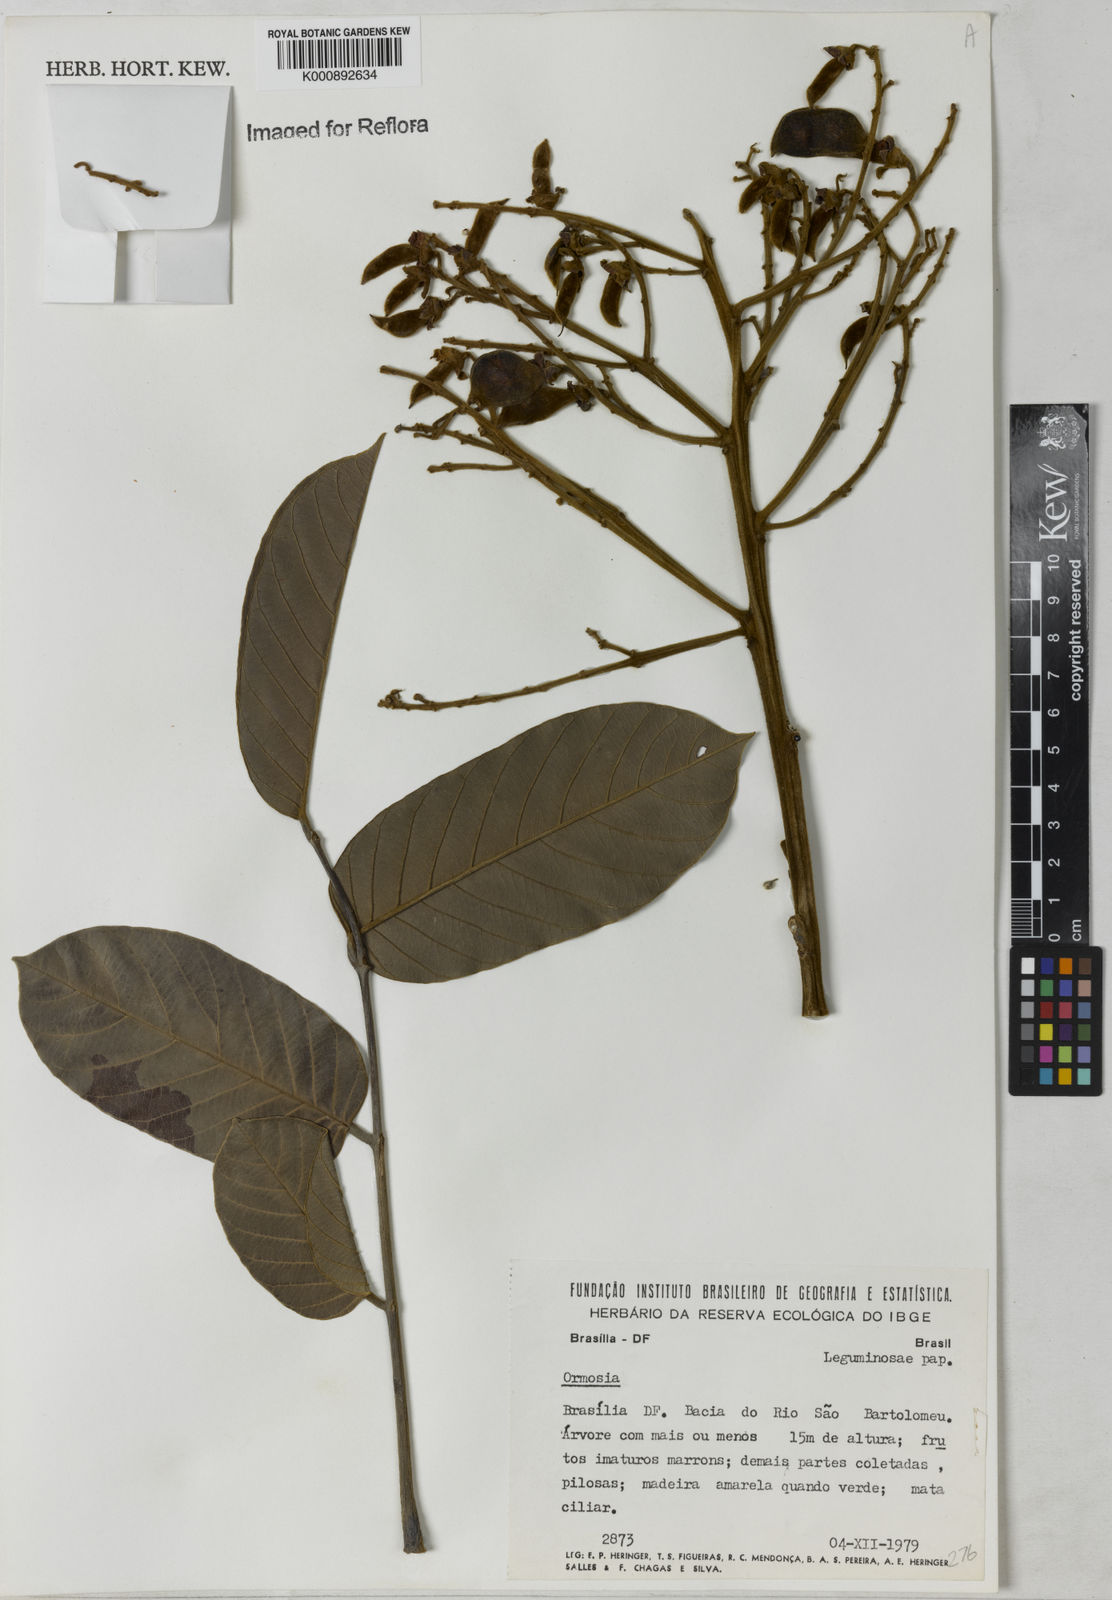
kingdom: Plantae
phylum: Tracheophyta
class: Magnoliopsida
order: Fabales
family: Fabaceae
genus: Ormosia
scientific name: Ormosia
